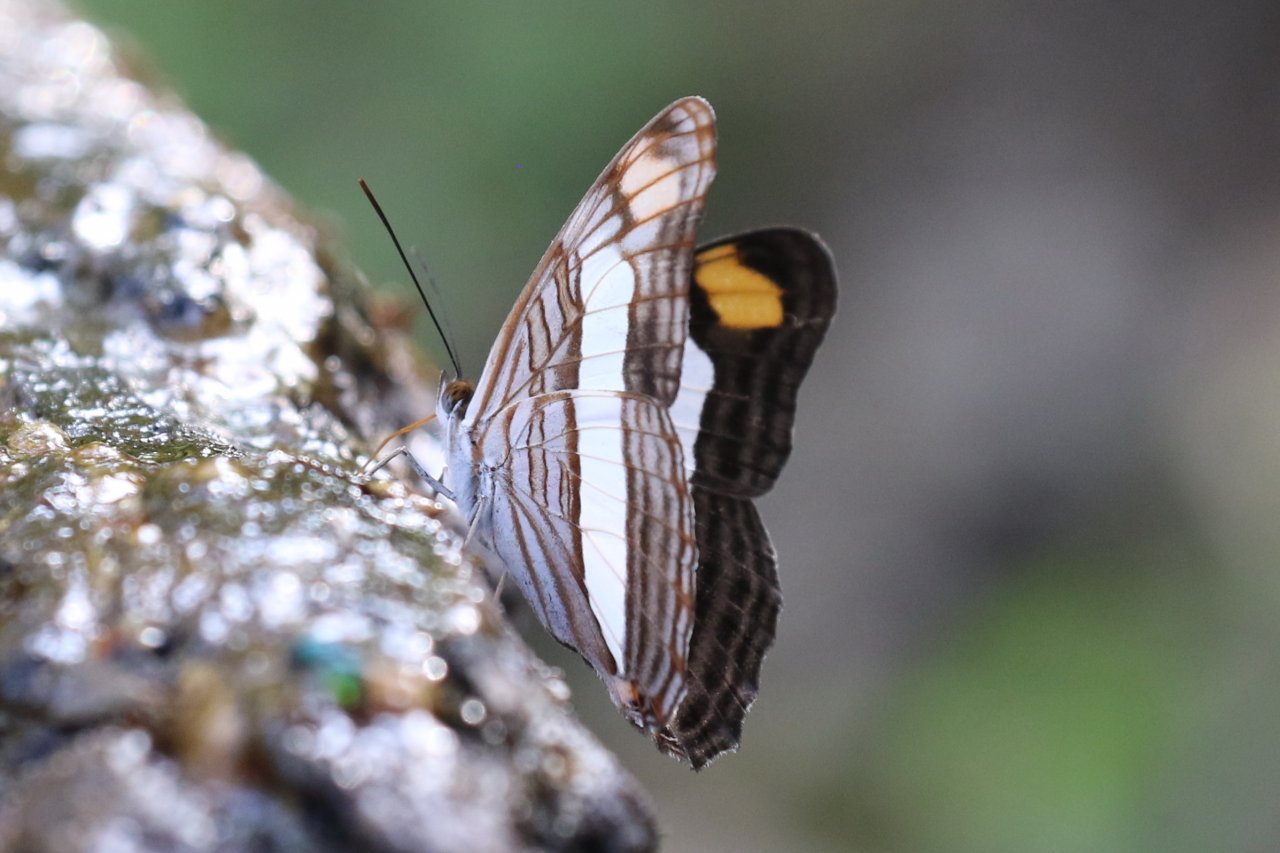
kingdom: Animalia
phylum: Arthropoda
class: Insecta
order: Lepidoptera
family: Nymphalidae
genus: Limenitis
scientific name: Limenitis Adelpha basiloides
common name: Spot-celled Sister
